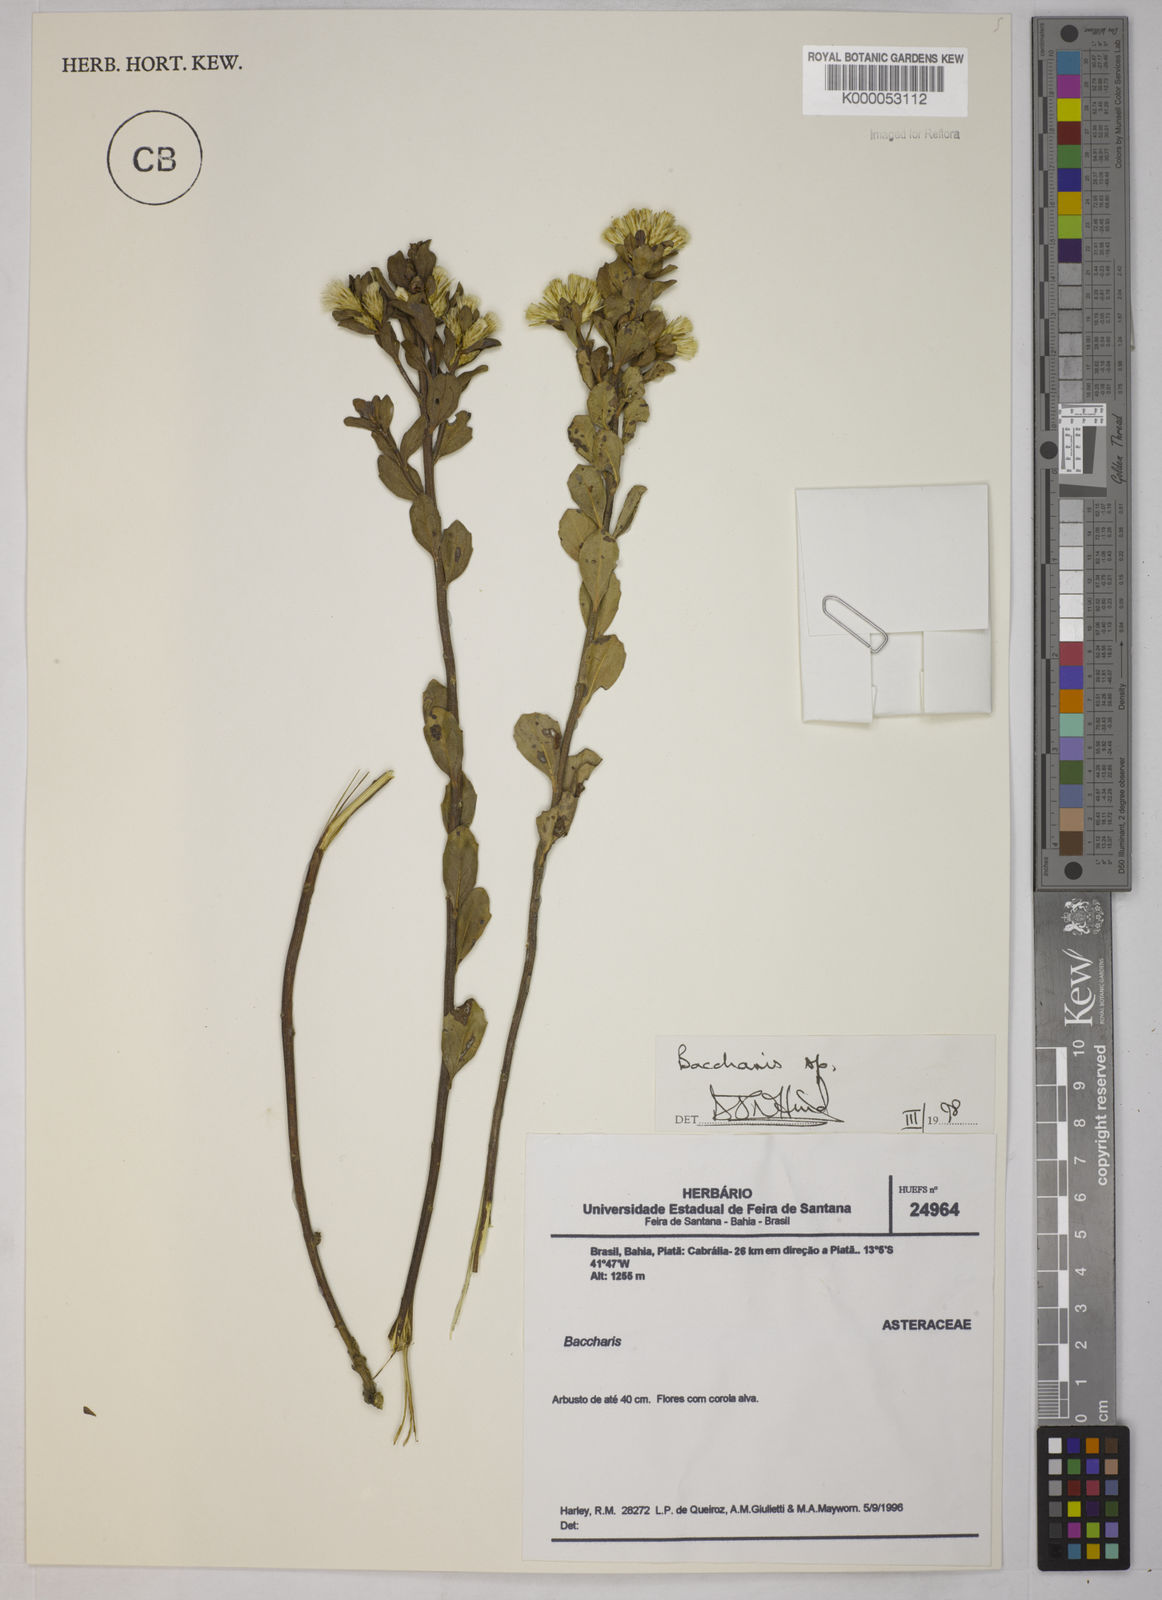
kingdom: Plantae
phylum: Tracheophyta
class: Magnoliopsida
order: Asterales
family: Asteraceae
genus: Baccharis
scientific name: Baccharis
